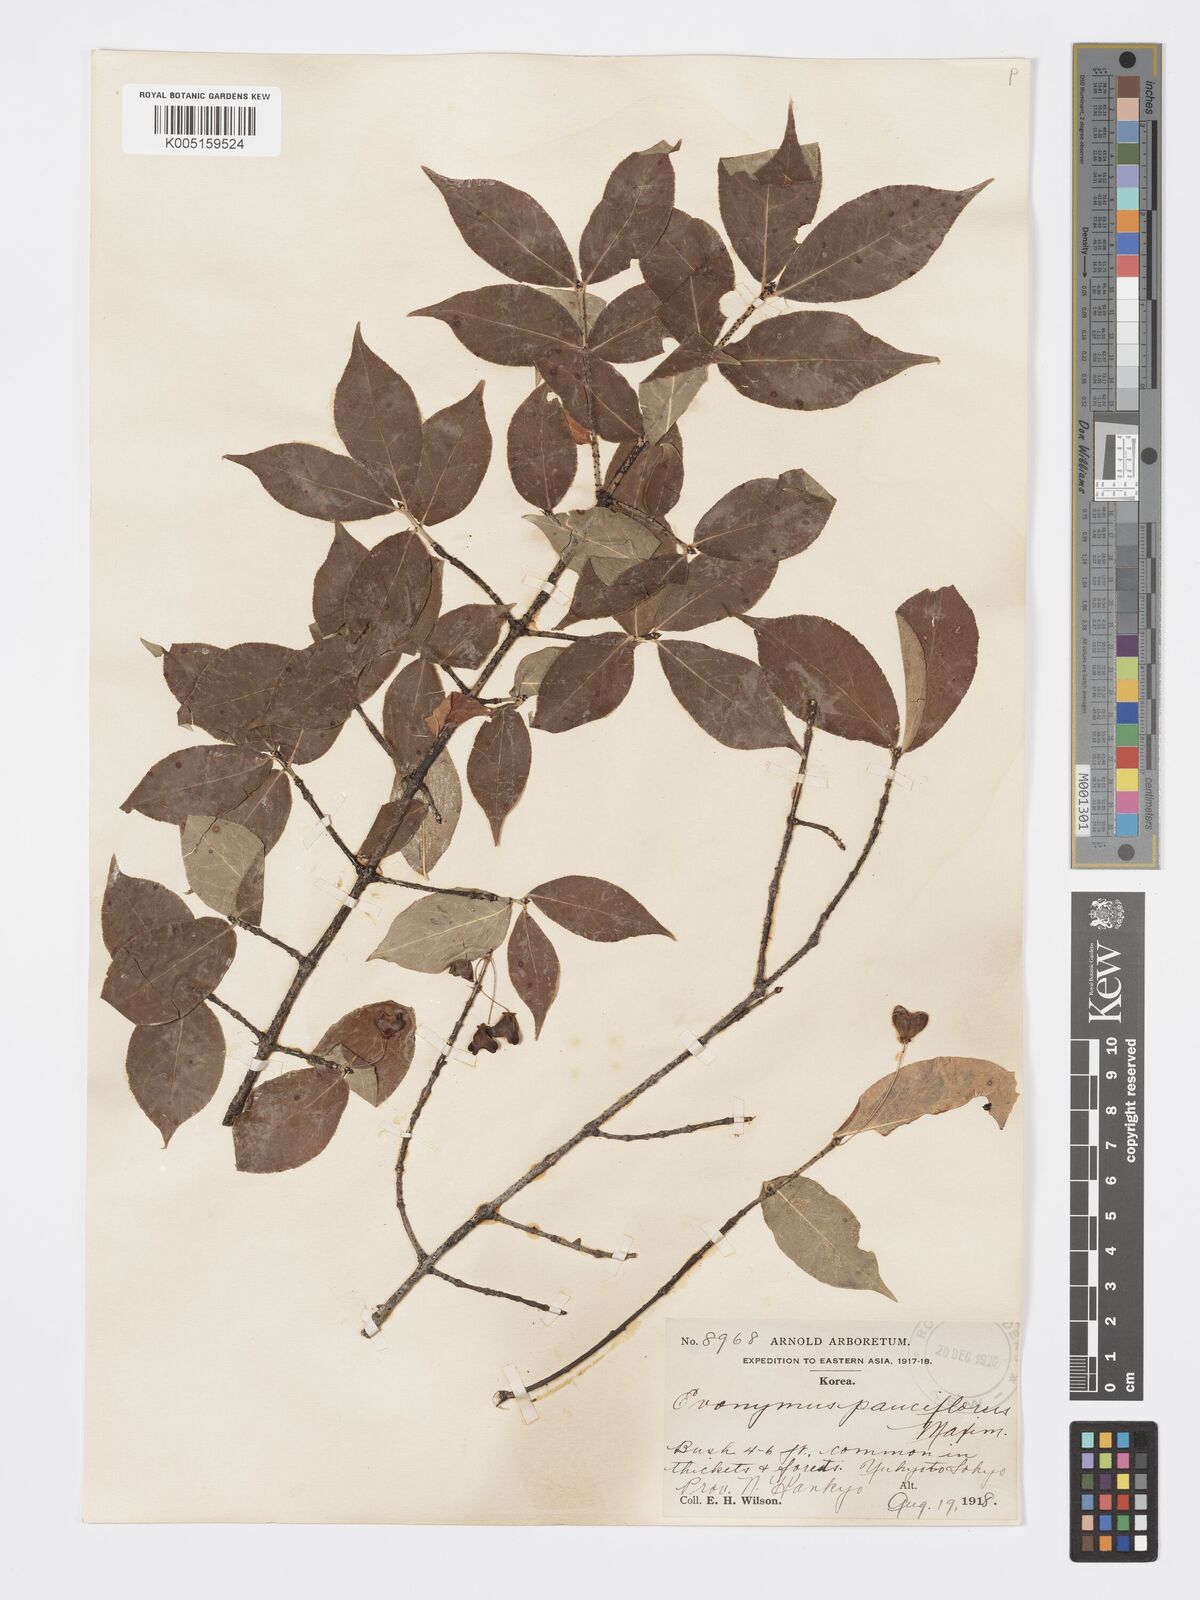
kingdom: Plantae
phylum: Tracheophyta
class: Magnoliopsida
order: Celastrales
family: Celastraceae
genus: Euonymus
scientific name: Euonymus verrucosus
